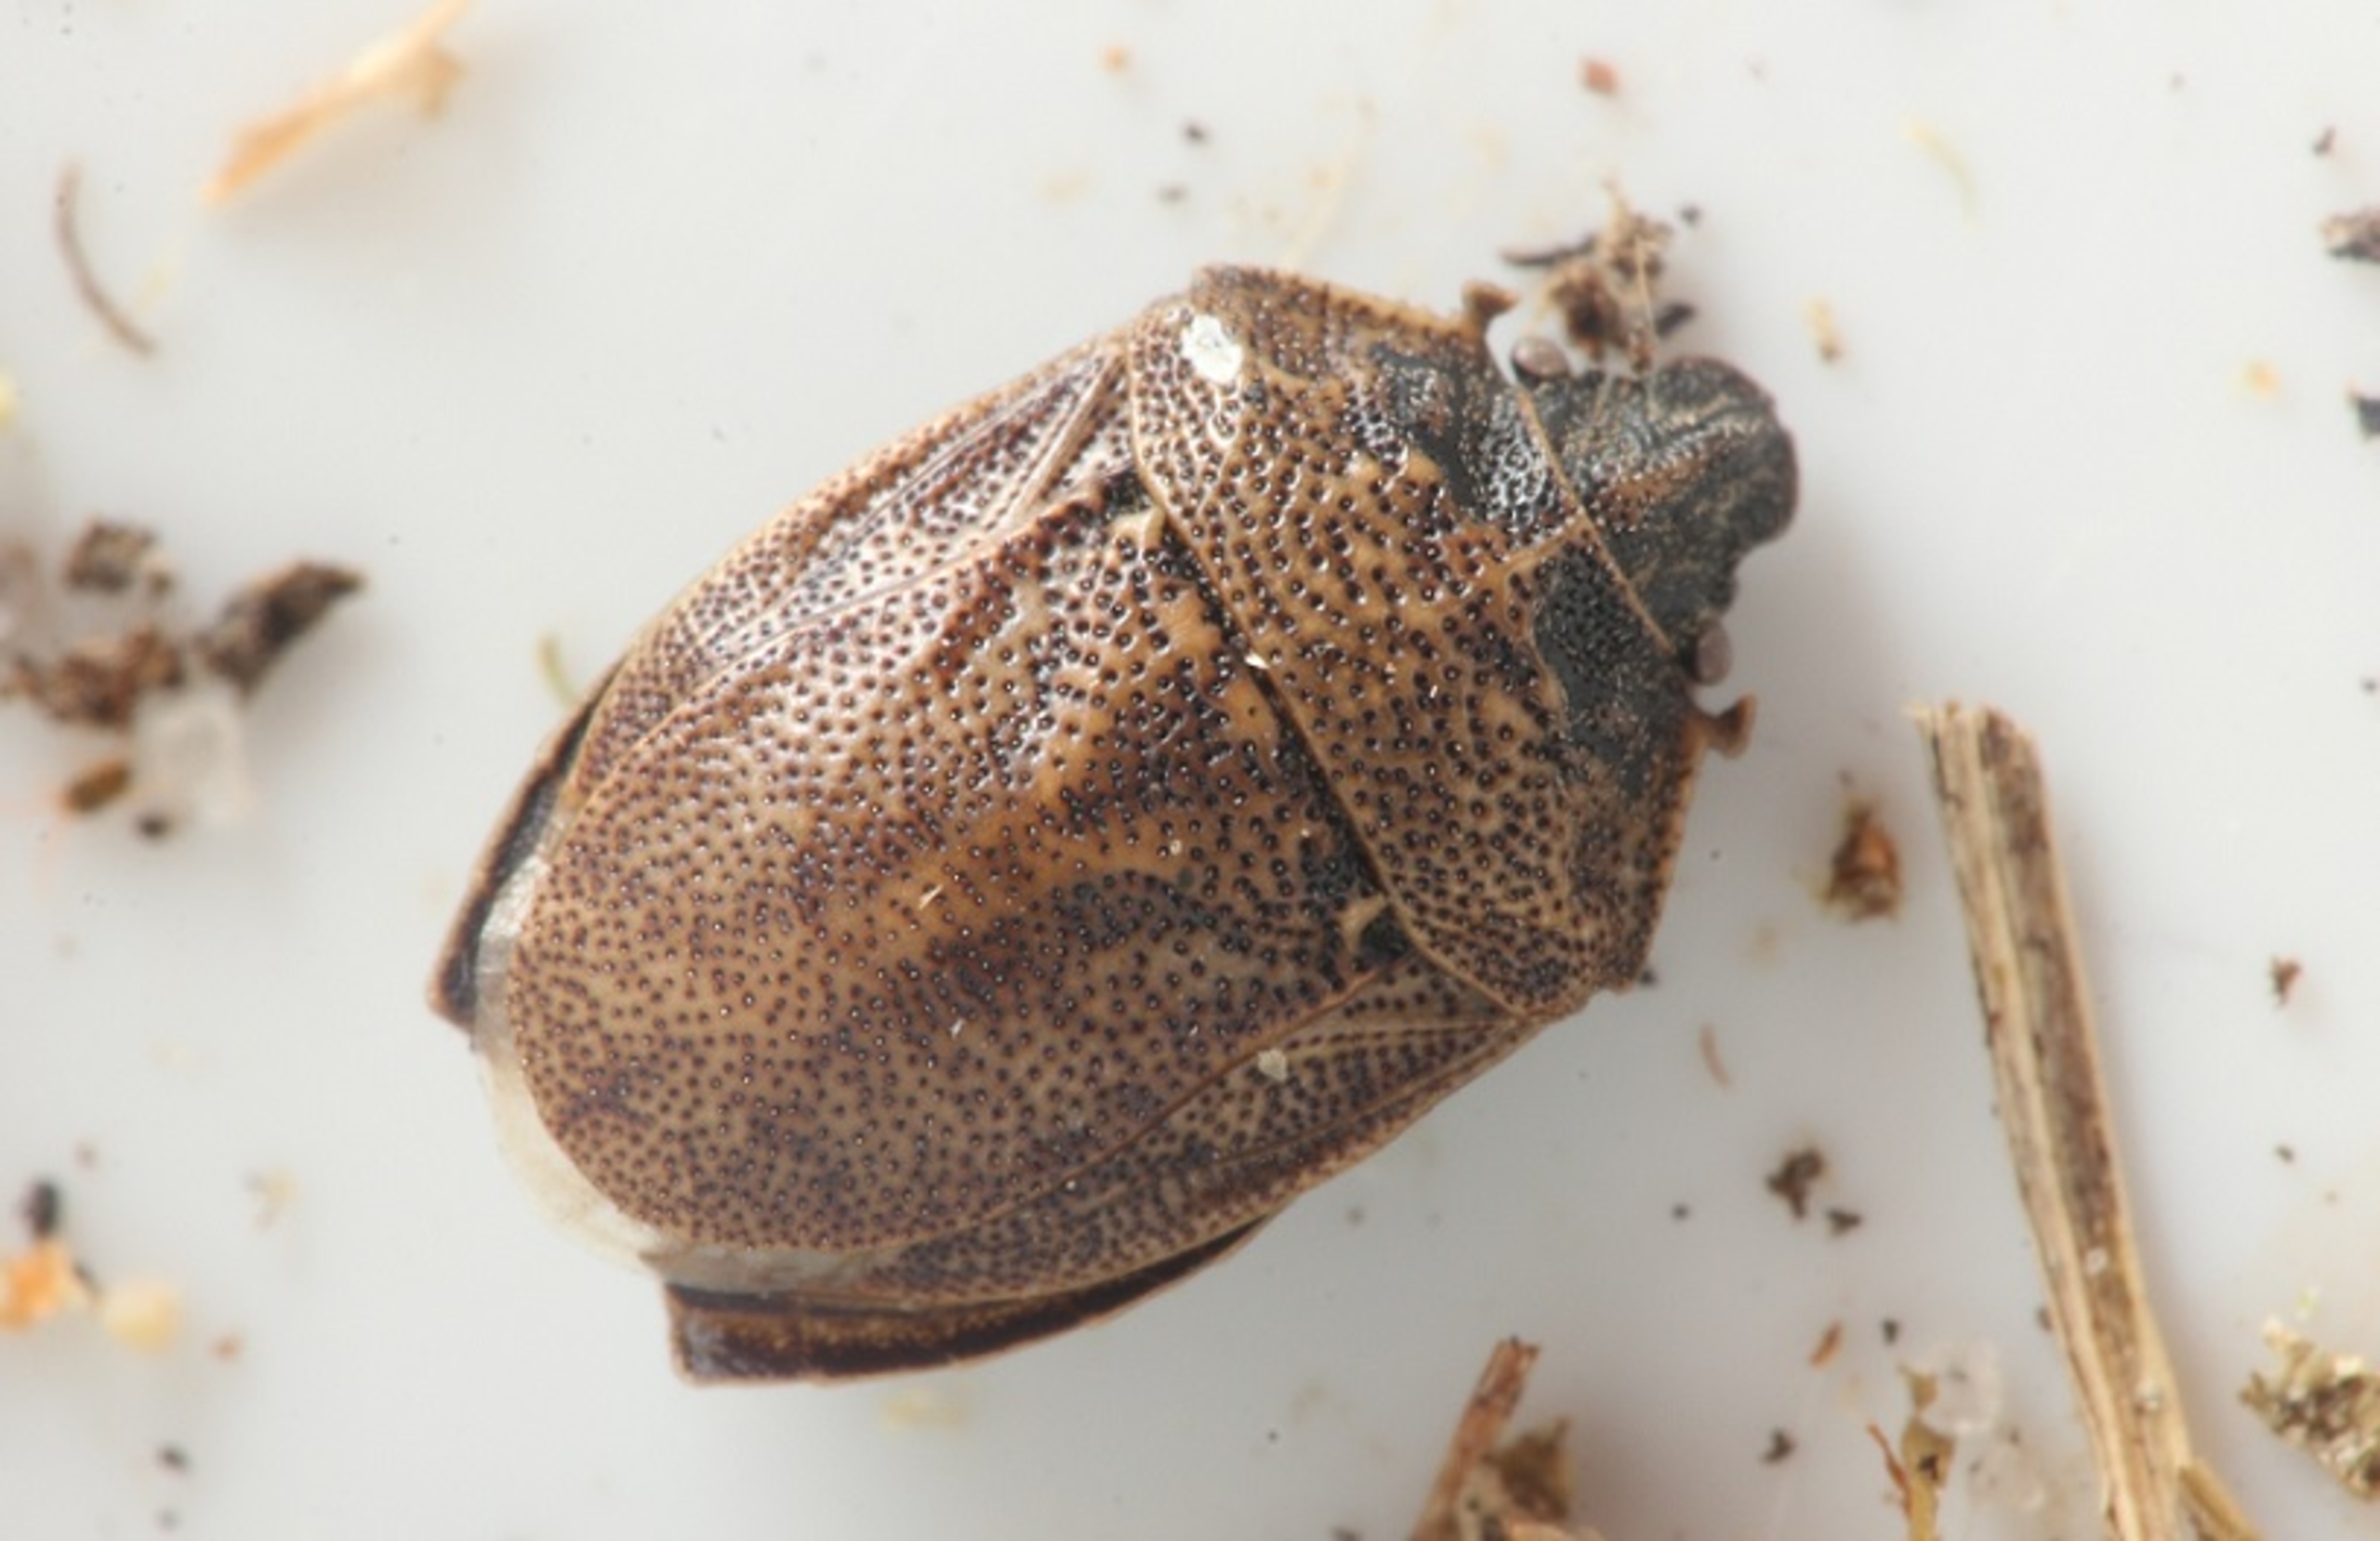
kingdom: Animalia
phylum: Arthropoda
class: Insecta
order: Hemiptera
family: Pentatomidae
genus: Podops
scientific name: Podops inunctus
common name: Krogtæge
